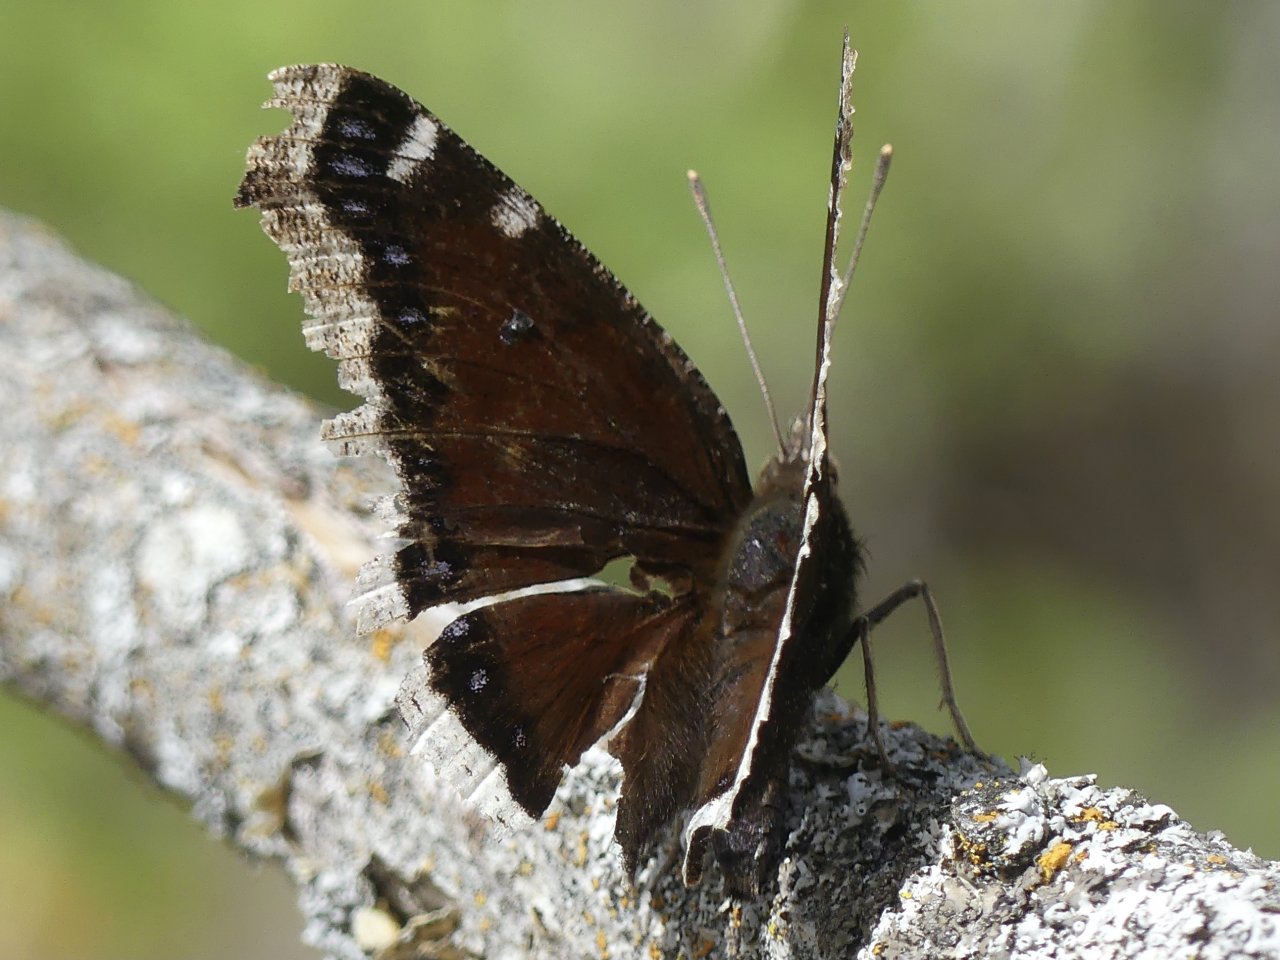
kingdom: Animalia
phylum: Arthropoda
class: Insecta
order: Lepidoptera
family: Nymphalidae
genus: Nymphalis
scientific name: Nymphalis antiopa
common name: Mourning Cloak
